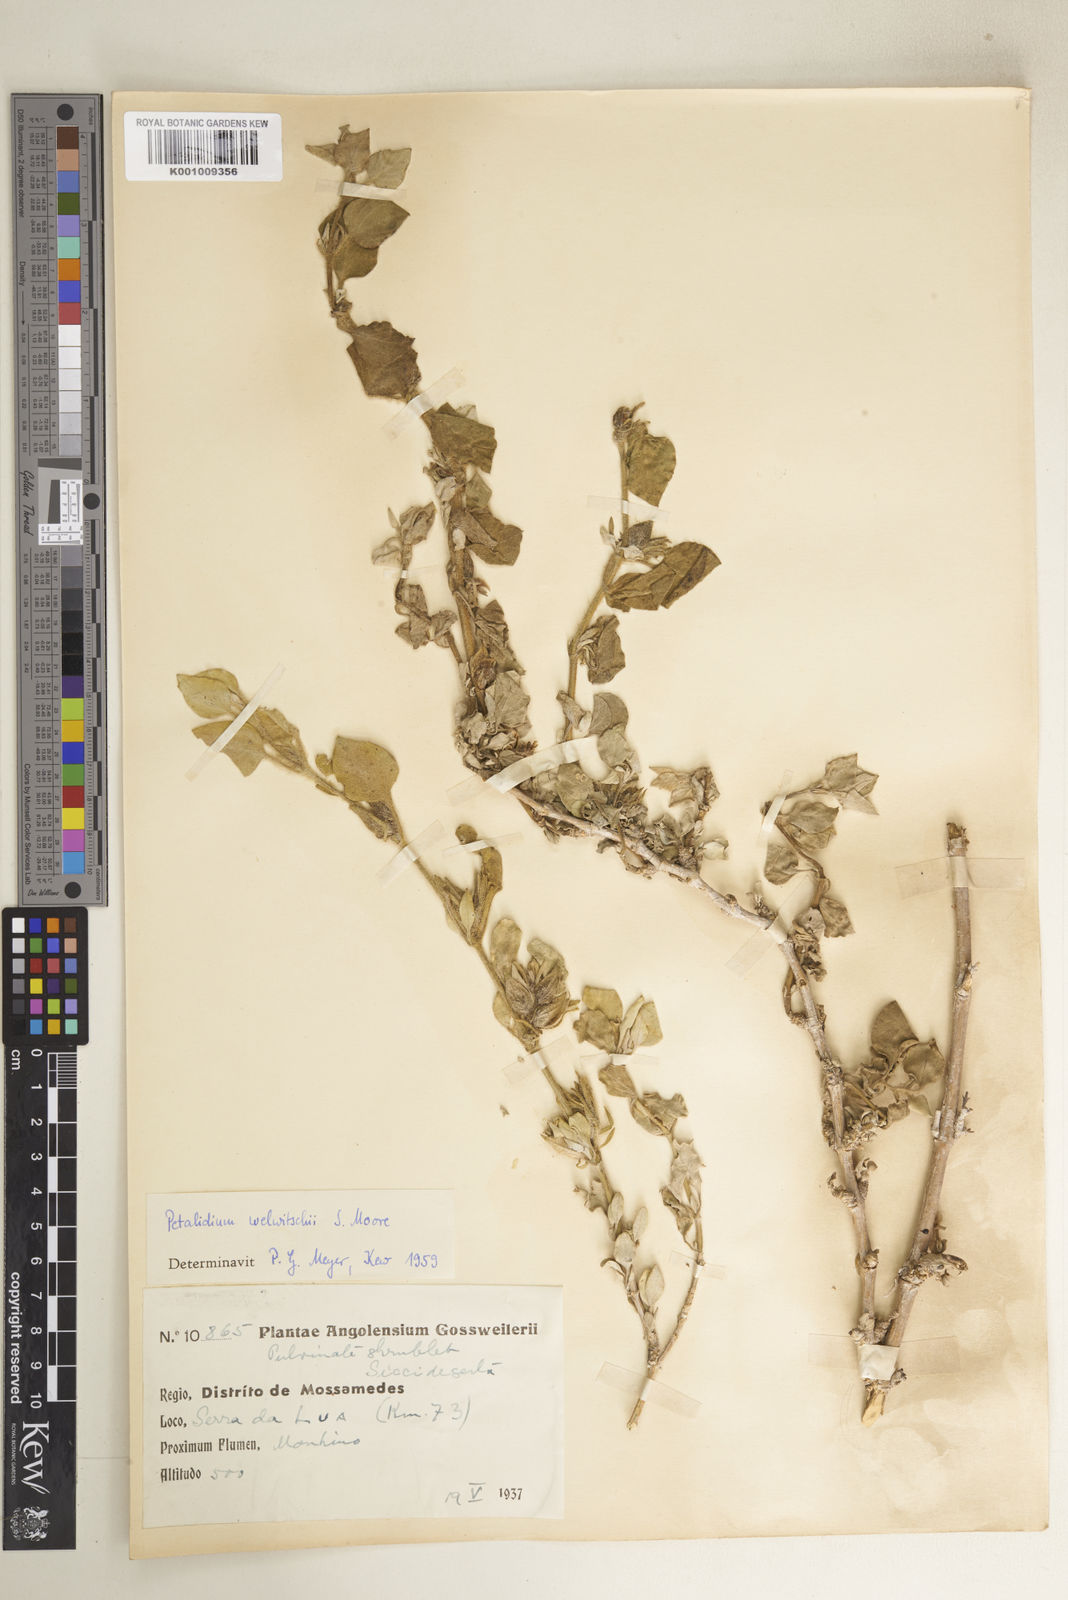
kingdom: Plantae
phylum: Tracheophyta
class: Magnoliopsida
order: Lamiales
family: Acanthaceae
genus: Petalidium
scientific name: Petalidium welwitschii
